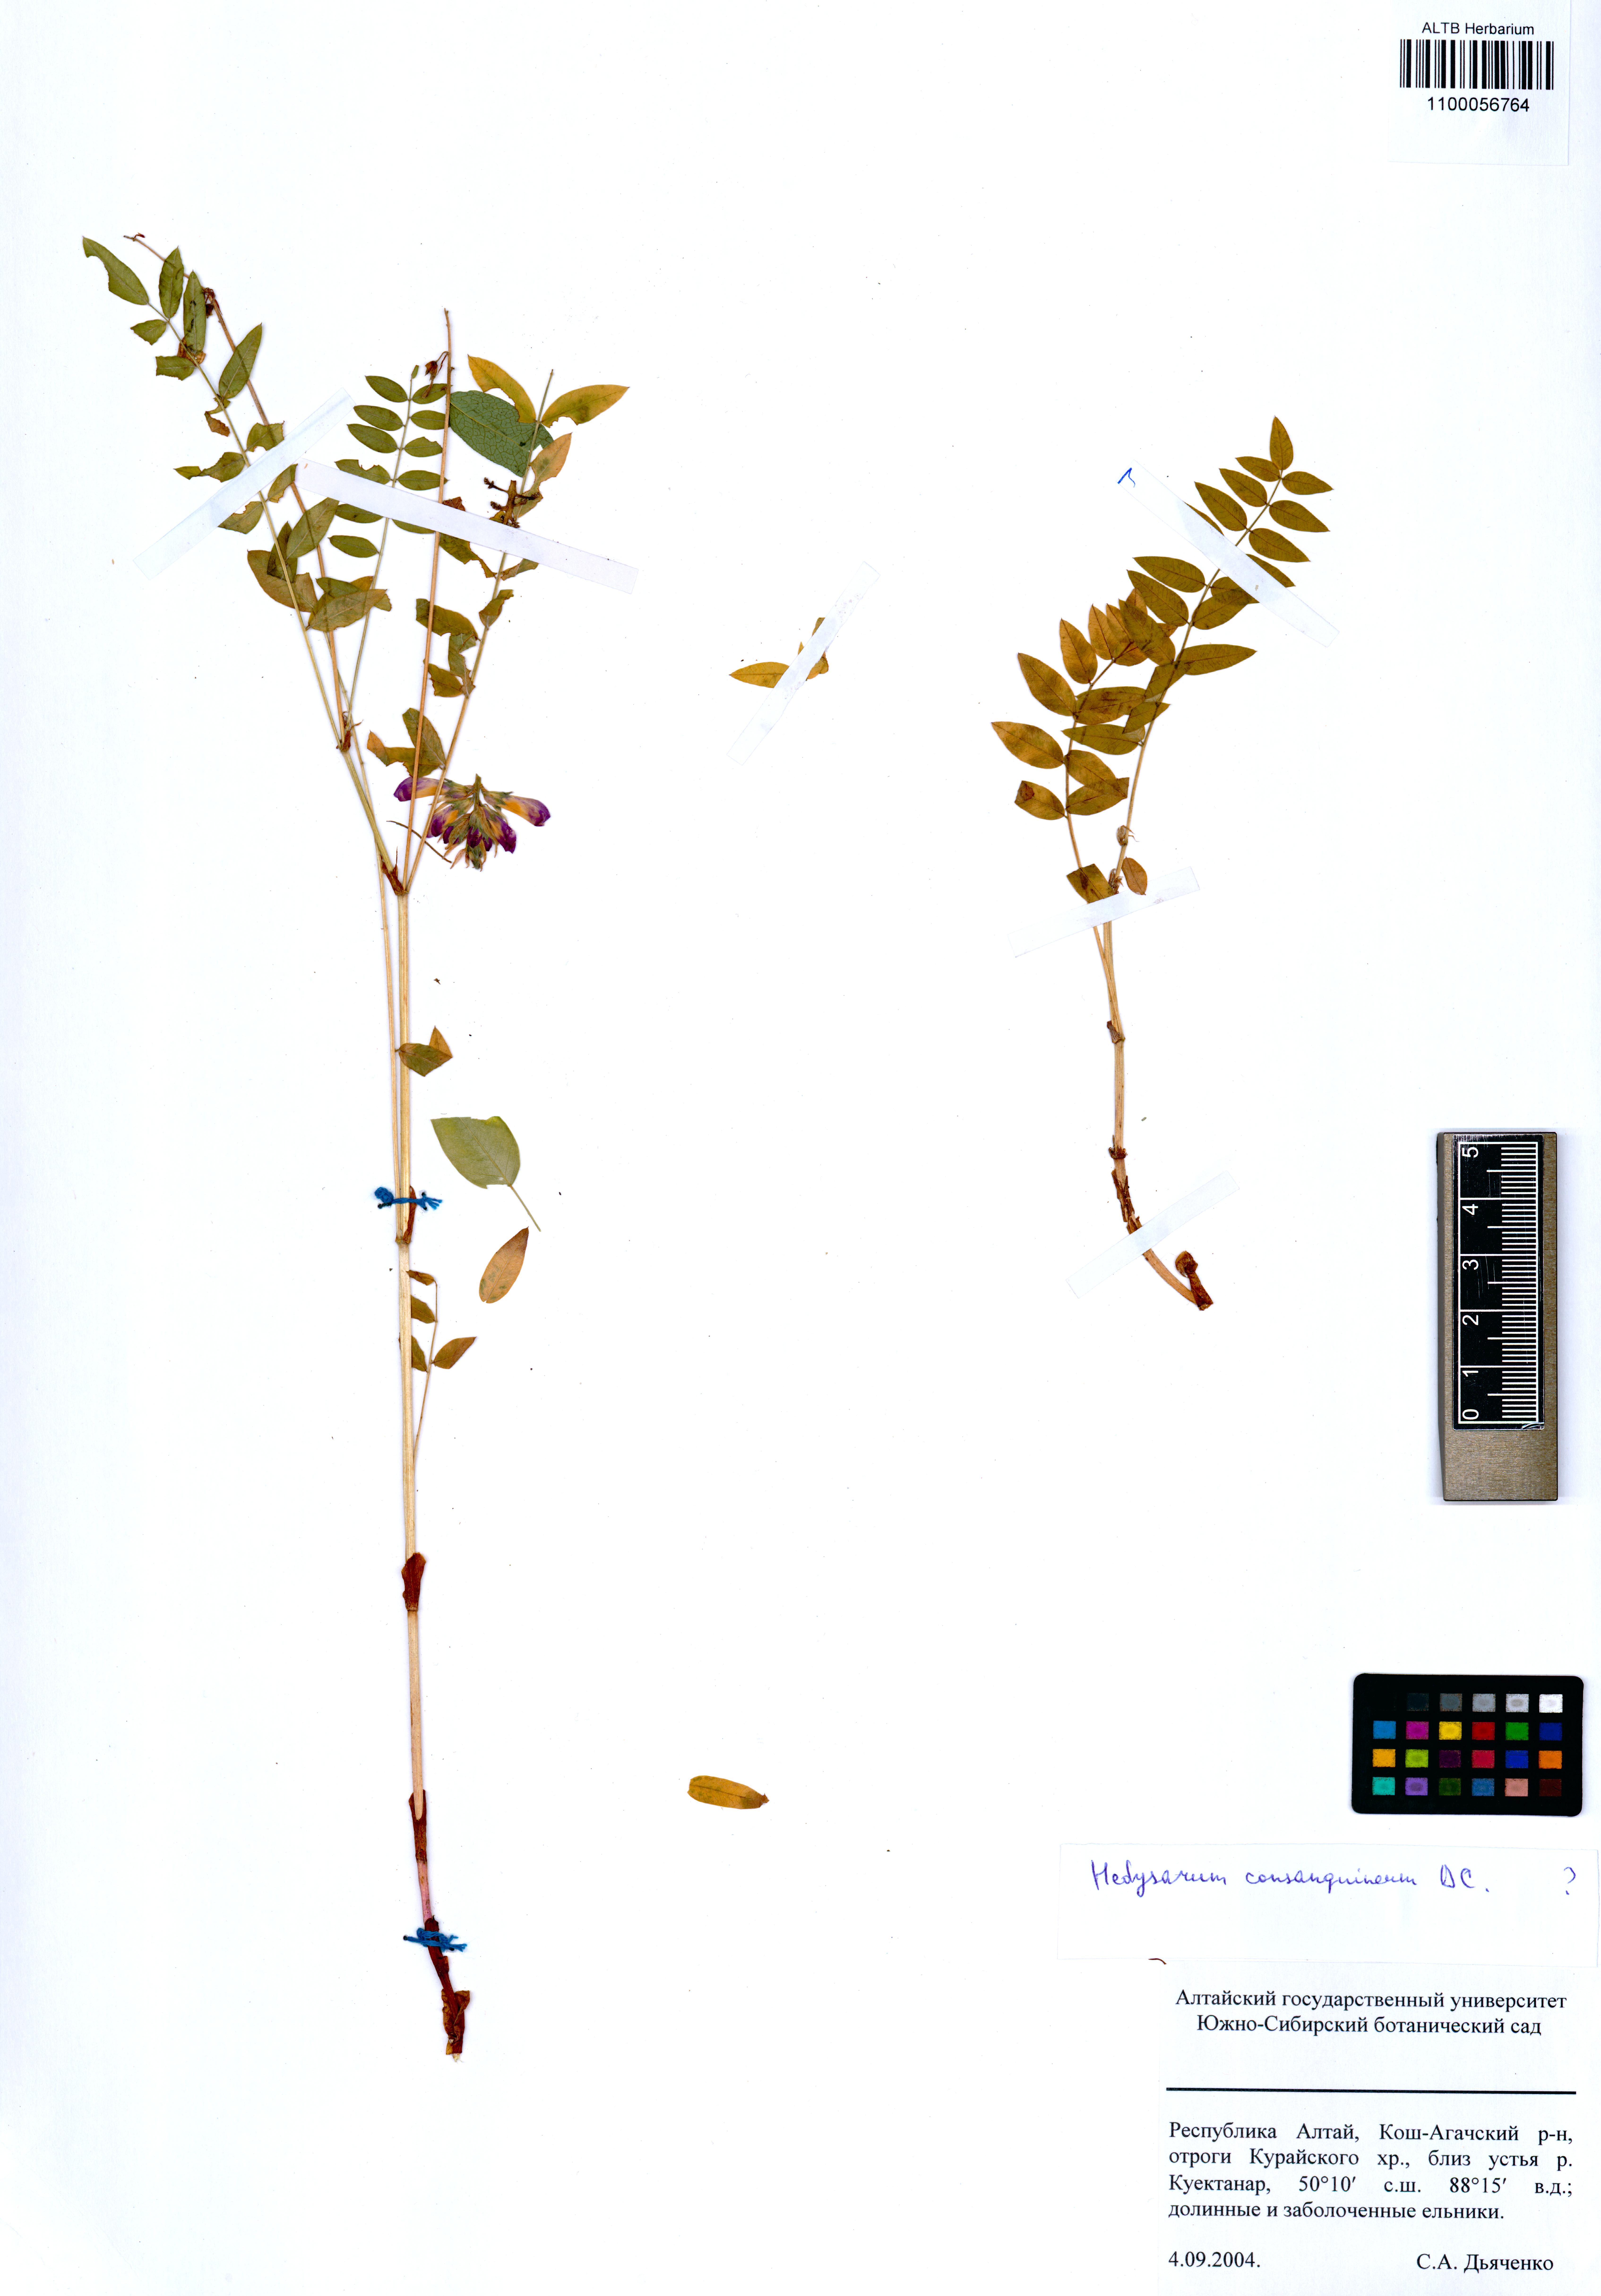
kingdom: Plantae
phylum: Tracheophyta
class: Magnoliopsida
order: Fabales
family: Fabaceae
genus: Hedysarum
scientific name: Hedysarum consanguineum
